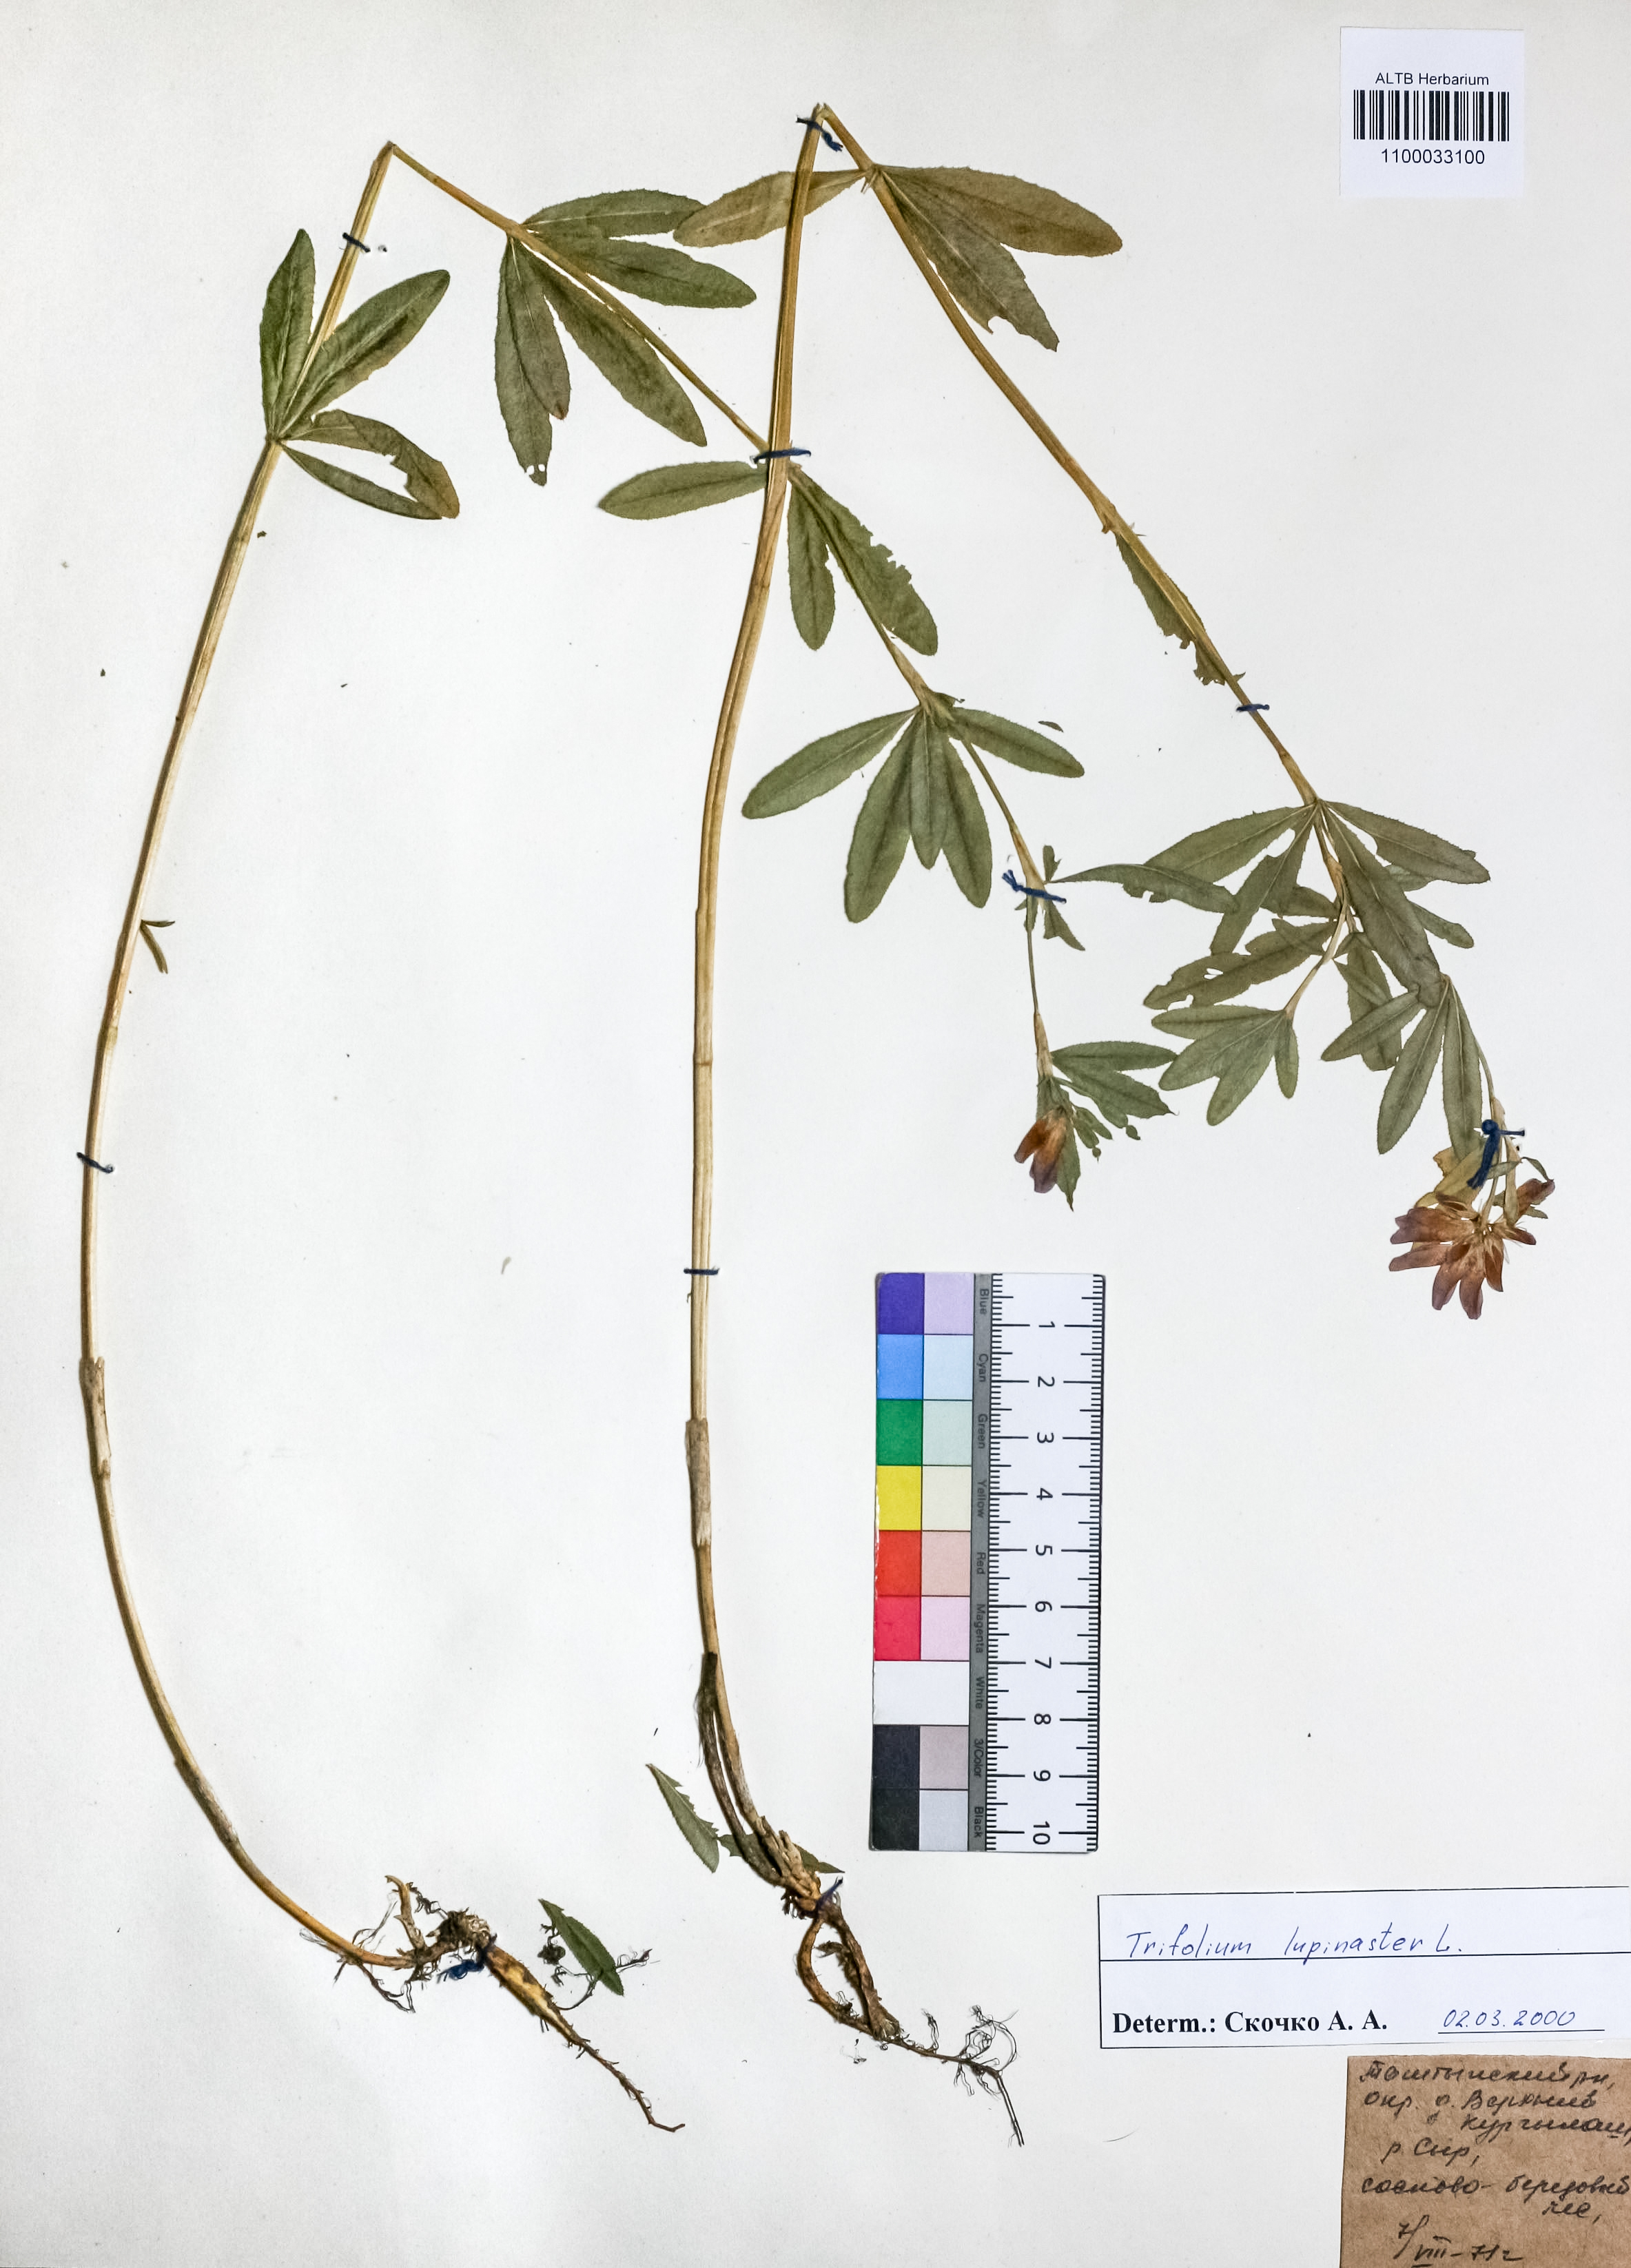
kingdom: Plantae
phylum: Tracheophyta
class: Magnoliopsida
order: Fabales
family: Fabaceae
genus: Trifolium
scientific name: Trifolium lupinaster
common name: Lupine clover
